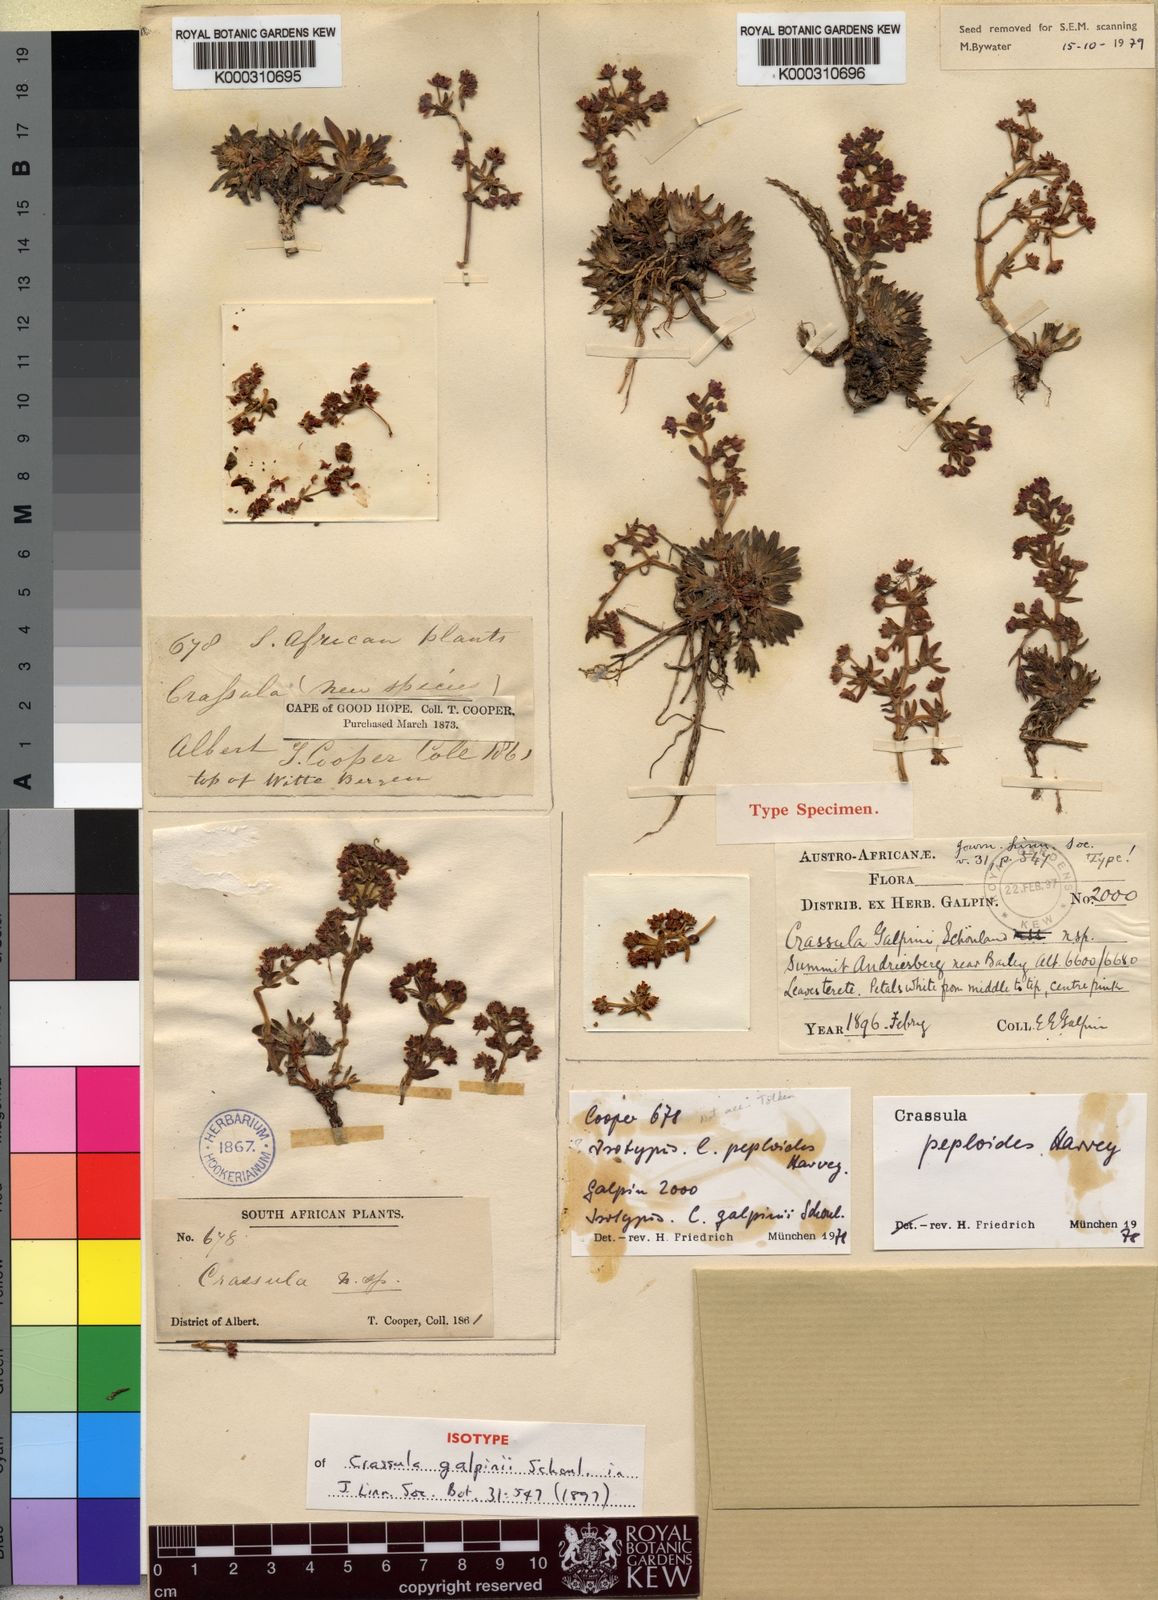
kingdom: Plantae
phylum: Tracheophyta
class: Magnoliopsida
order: Saxifragales
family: Crassulaceae
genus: Crassula
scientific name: Crassula peploides
